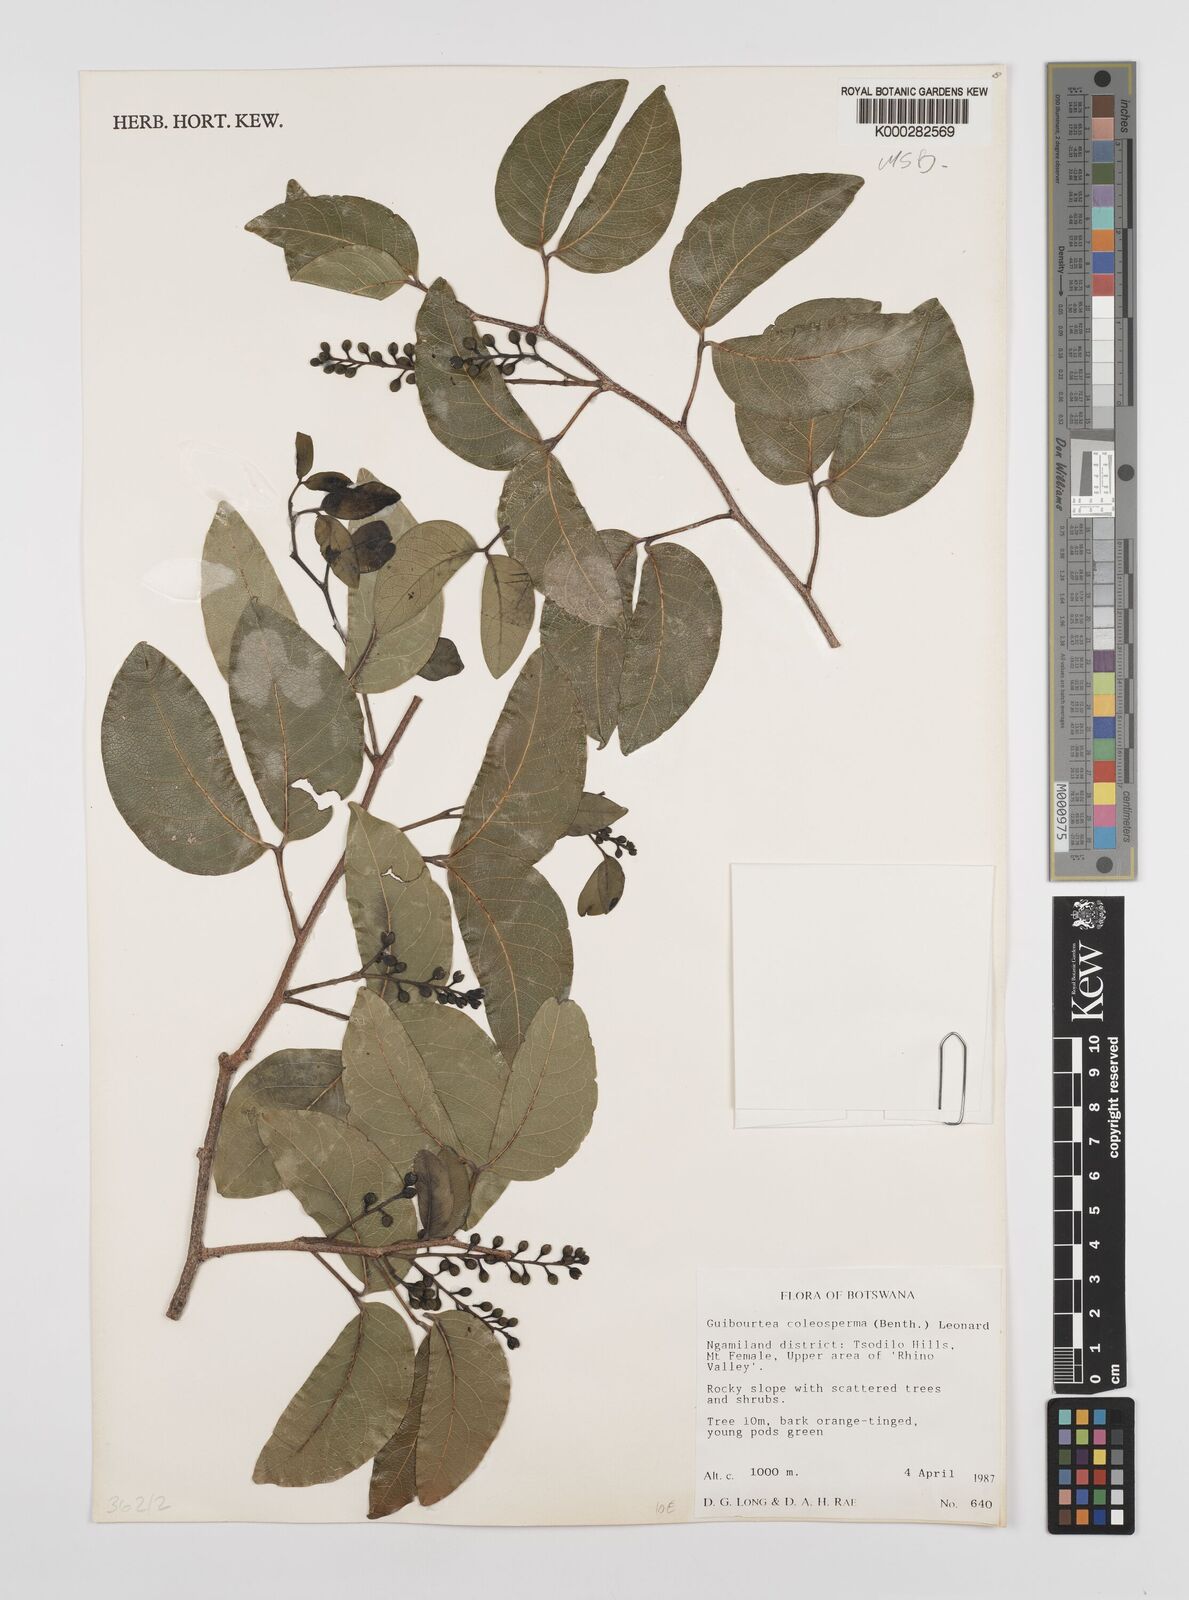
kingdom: Plantae
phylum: Tracheophyta
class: Magnoliopsida
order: Fabales
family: Fabaceae
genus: Guibourtia
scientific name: Guibourtia coleosperma
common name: African rosewoood
